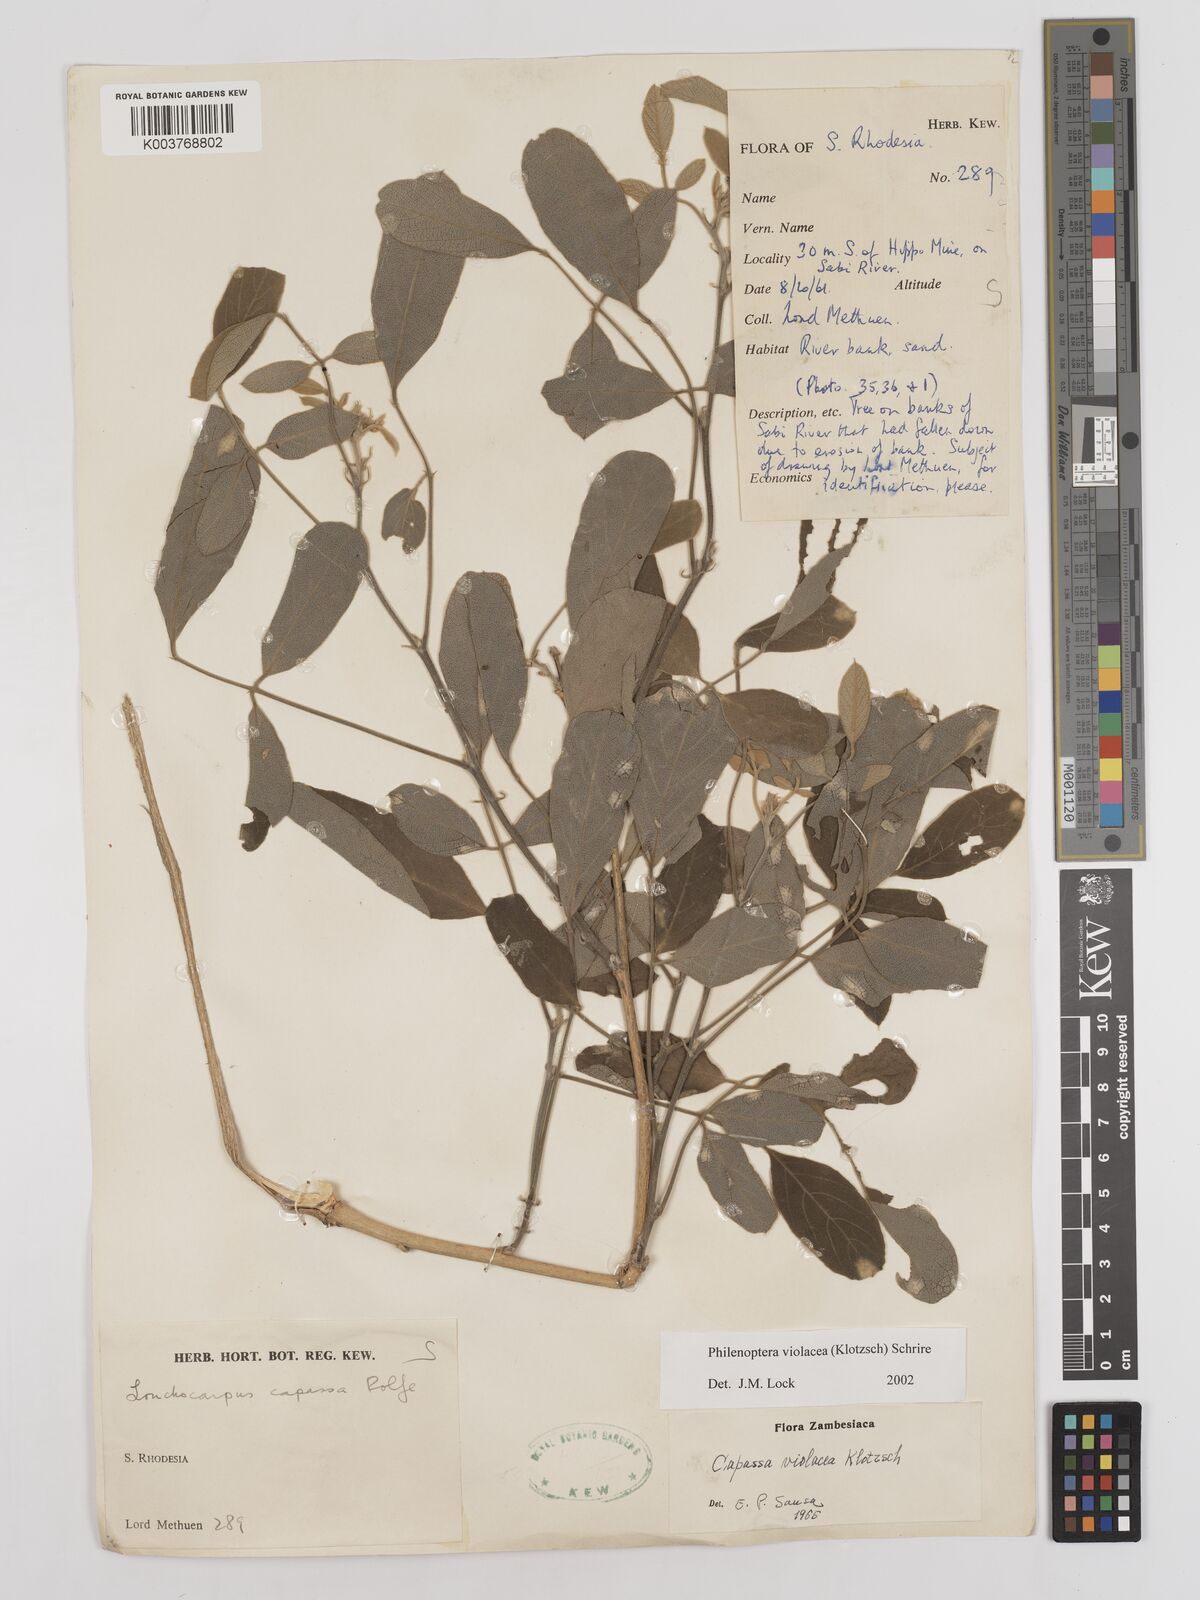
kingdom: Plantae
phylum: Tracheophyta
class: Magnoliopsida
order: Fabales
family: Fabaceae
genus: Philenoptera
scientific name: Philenoptera violacea
